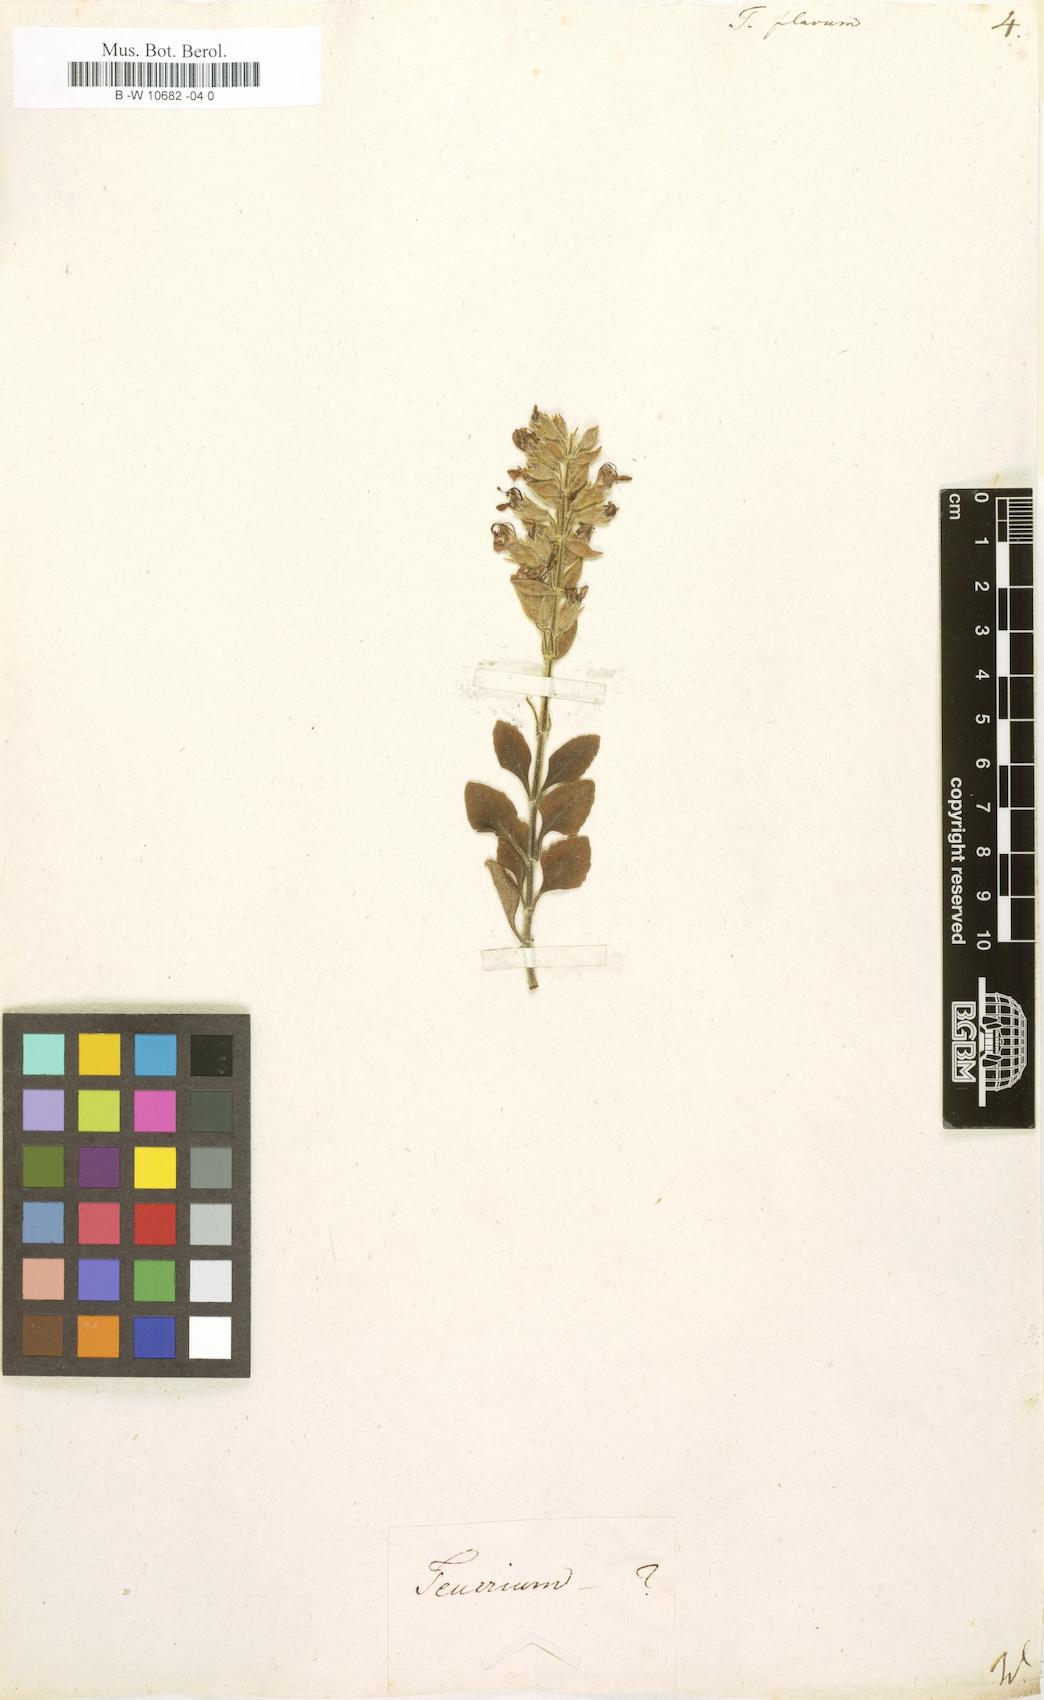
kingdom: Plantae
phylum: Tracheophyta
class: Magnoliopsida
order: Lamiales
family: Lamiaceae
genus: Teucrium
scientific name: Teucrium flavum
